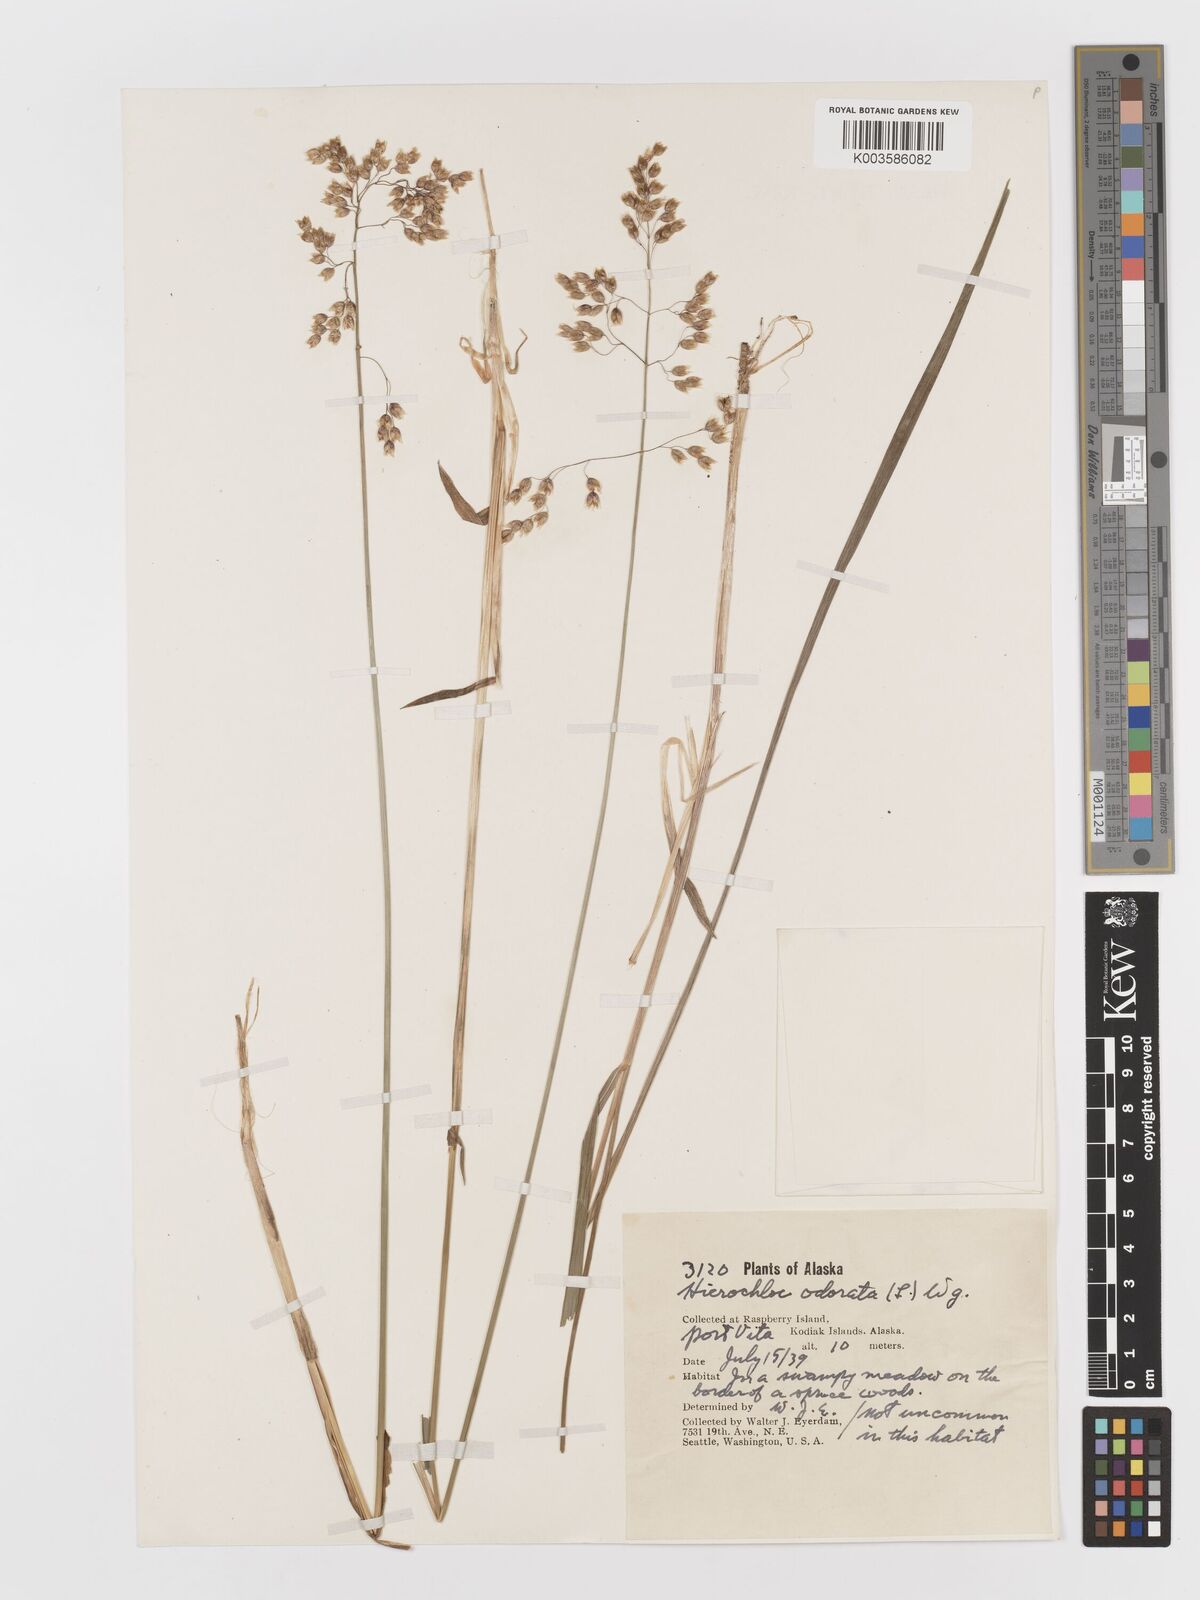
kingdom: Plantae
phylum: Tracheophyta
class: Liliopsida
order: Poales
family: Poaceae
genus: Anthoxanthum
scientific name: Anthoxanthum nitens
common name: Holy grass
